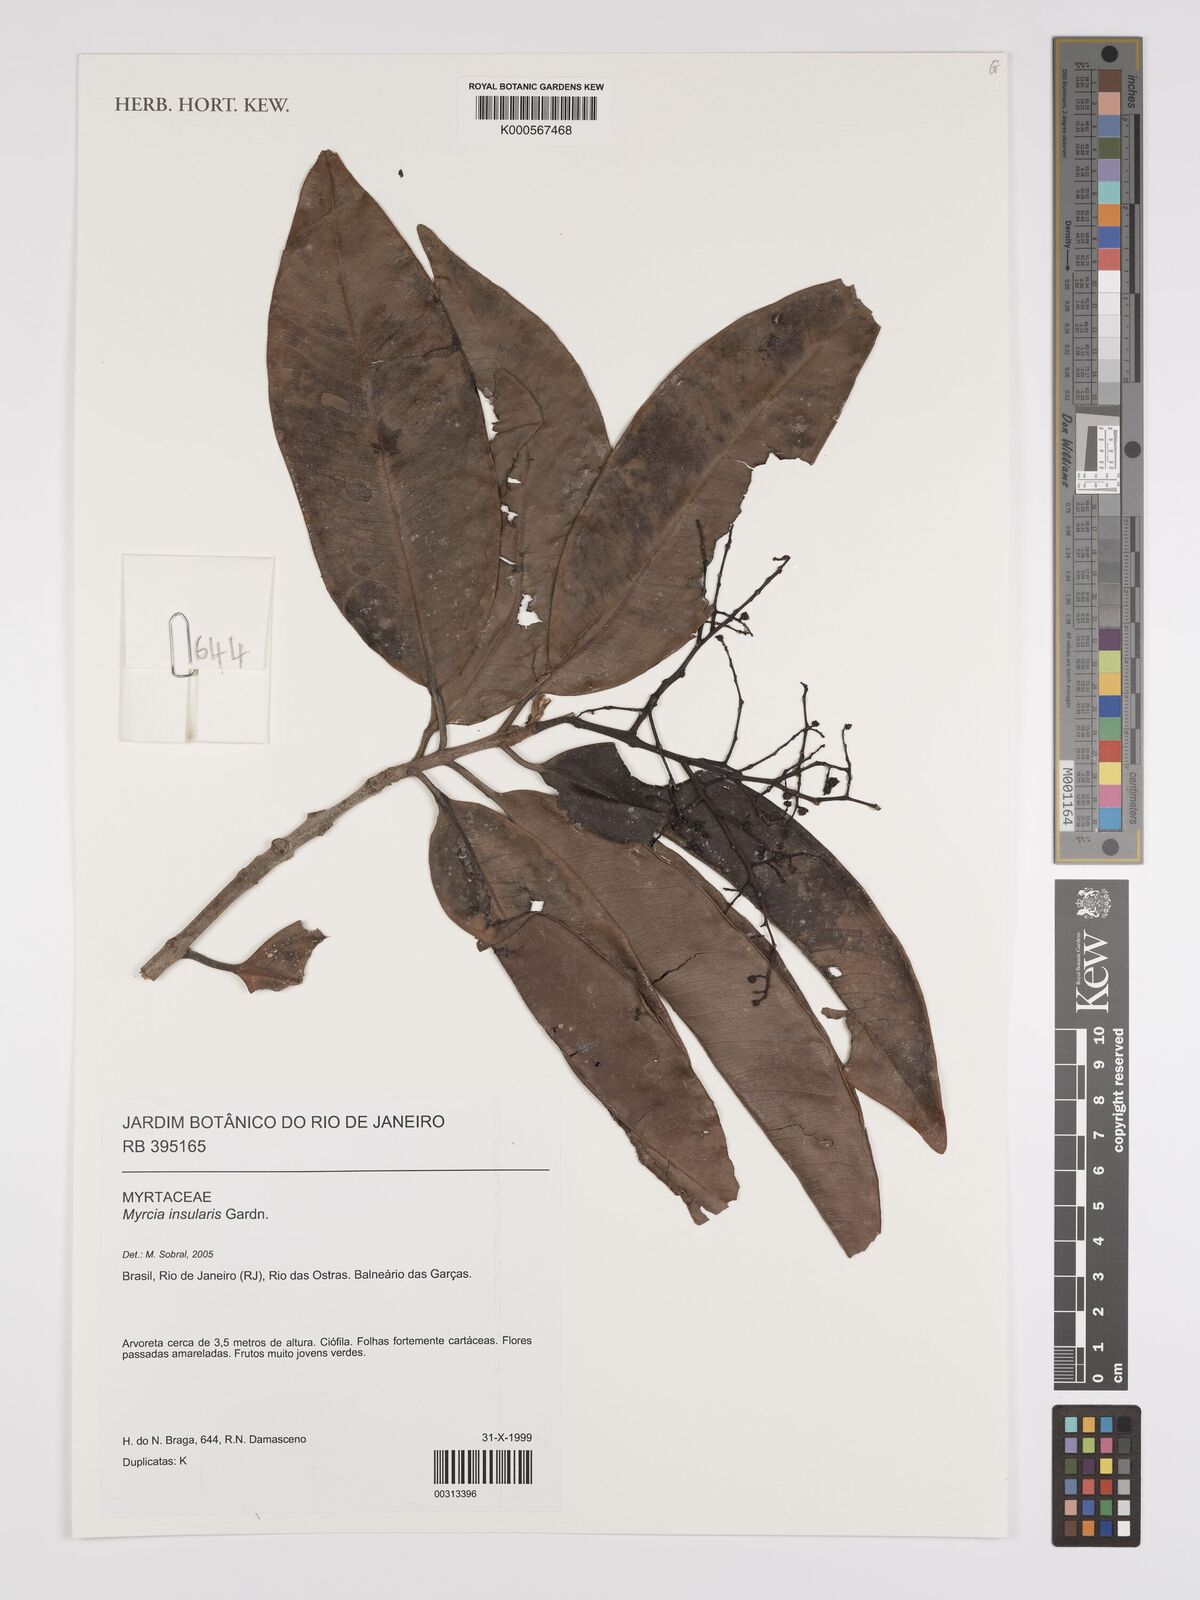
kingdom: Plantae
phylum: Tracheophyta
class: Magnoliopsida
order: Myrtales
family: Myrtaceae
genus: Myrcia
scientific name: Myrcia insularis
